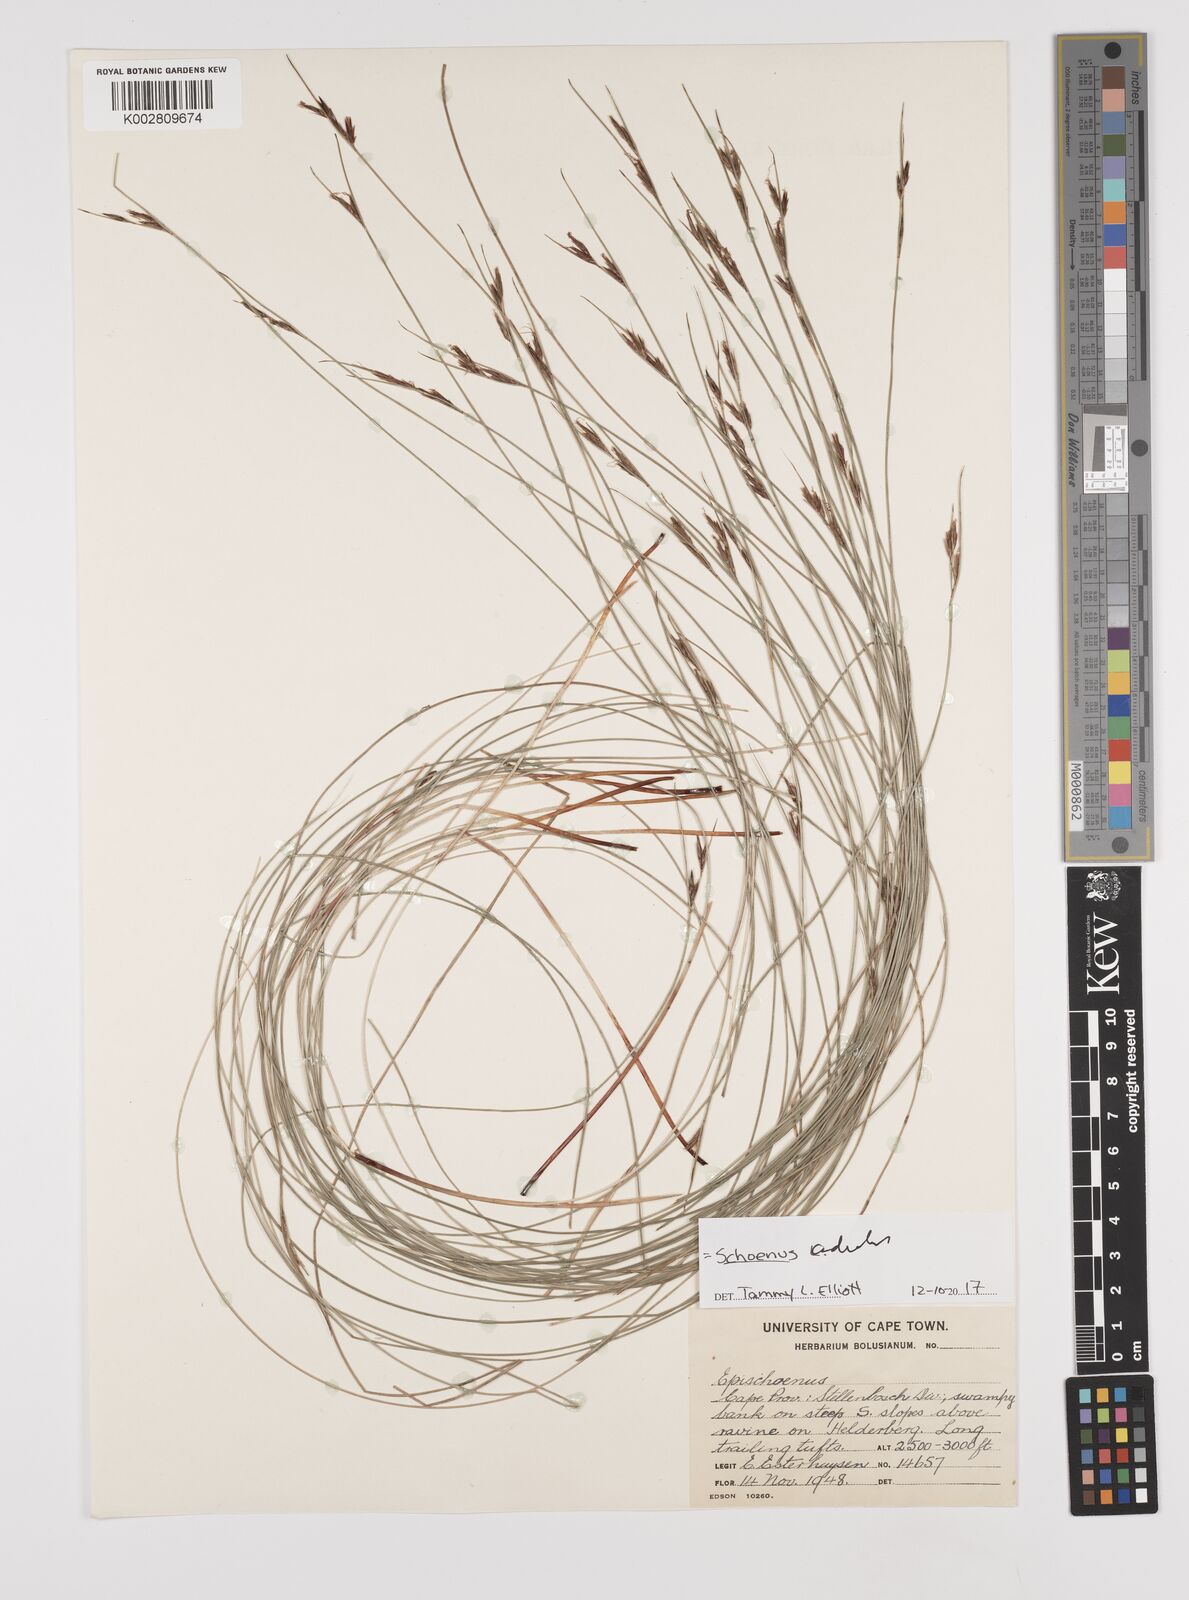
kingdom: Plantae
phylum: Tracheophyta
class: Liliopsida
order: Poales
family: Cyperaceae
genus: Schoenus
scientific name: Schoenus adnatus
